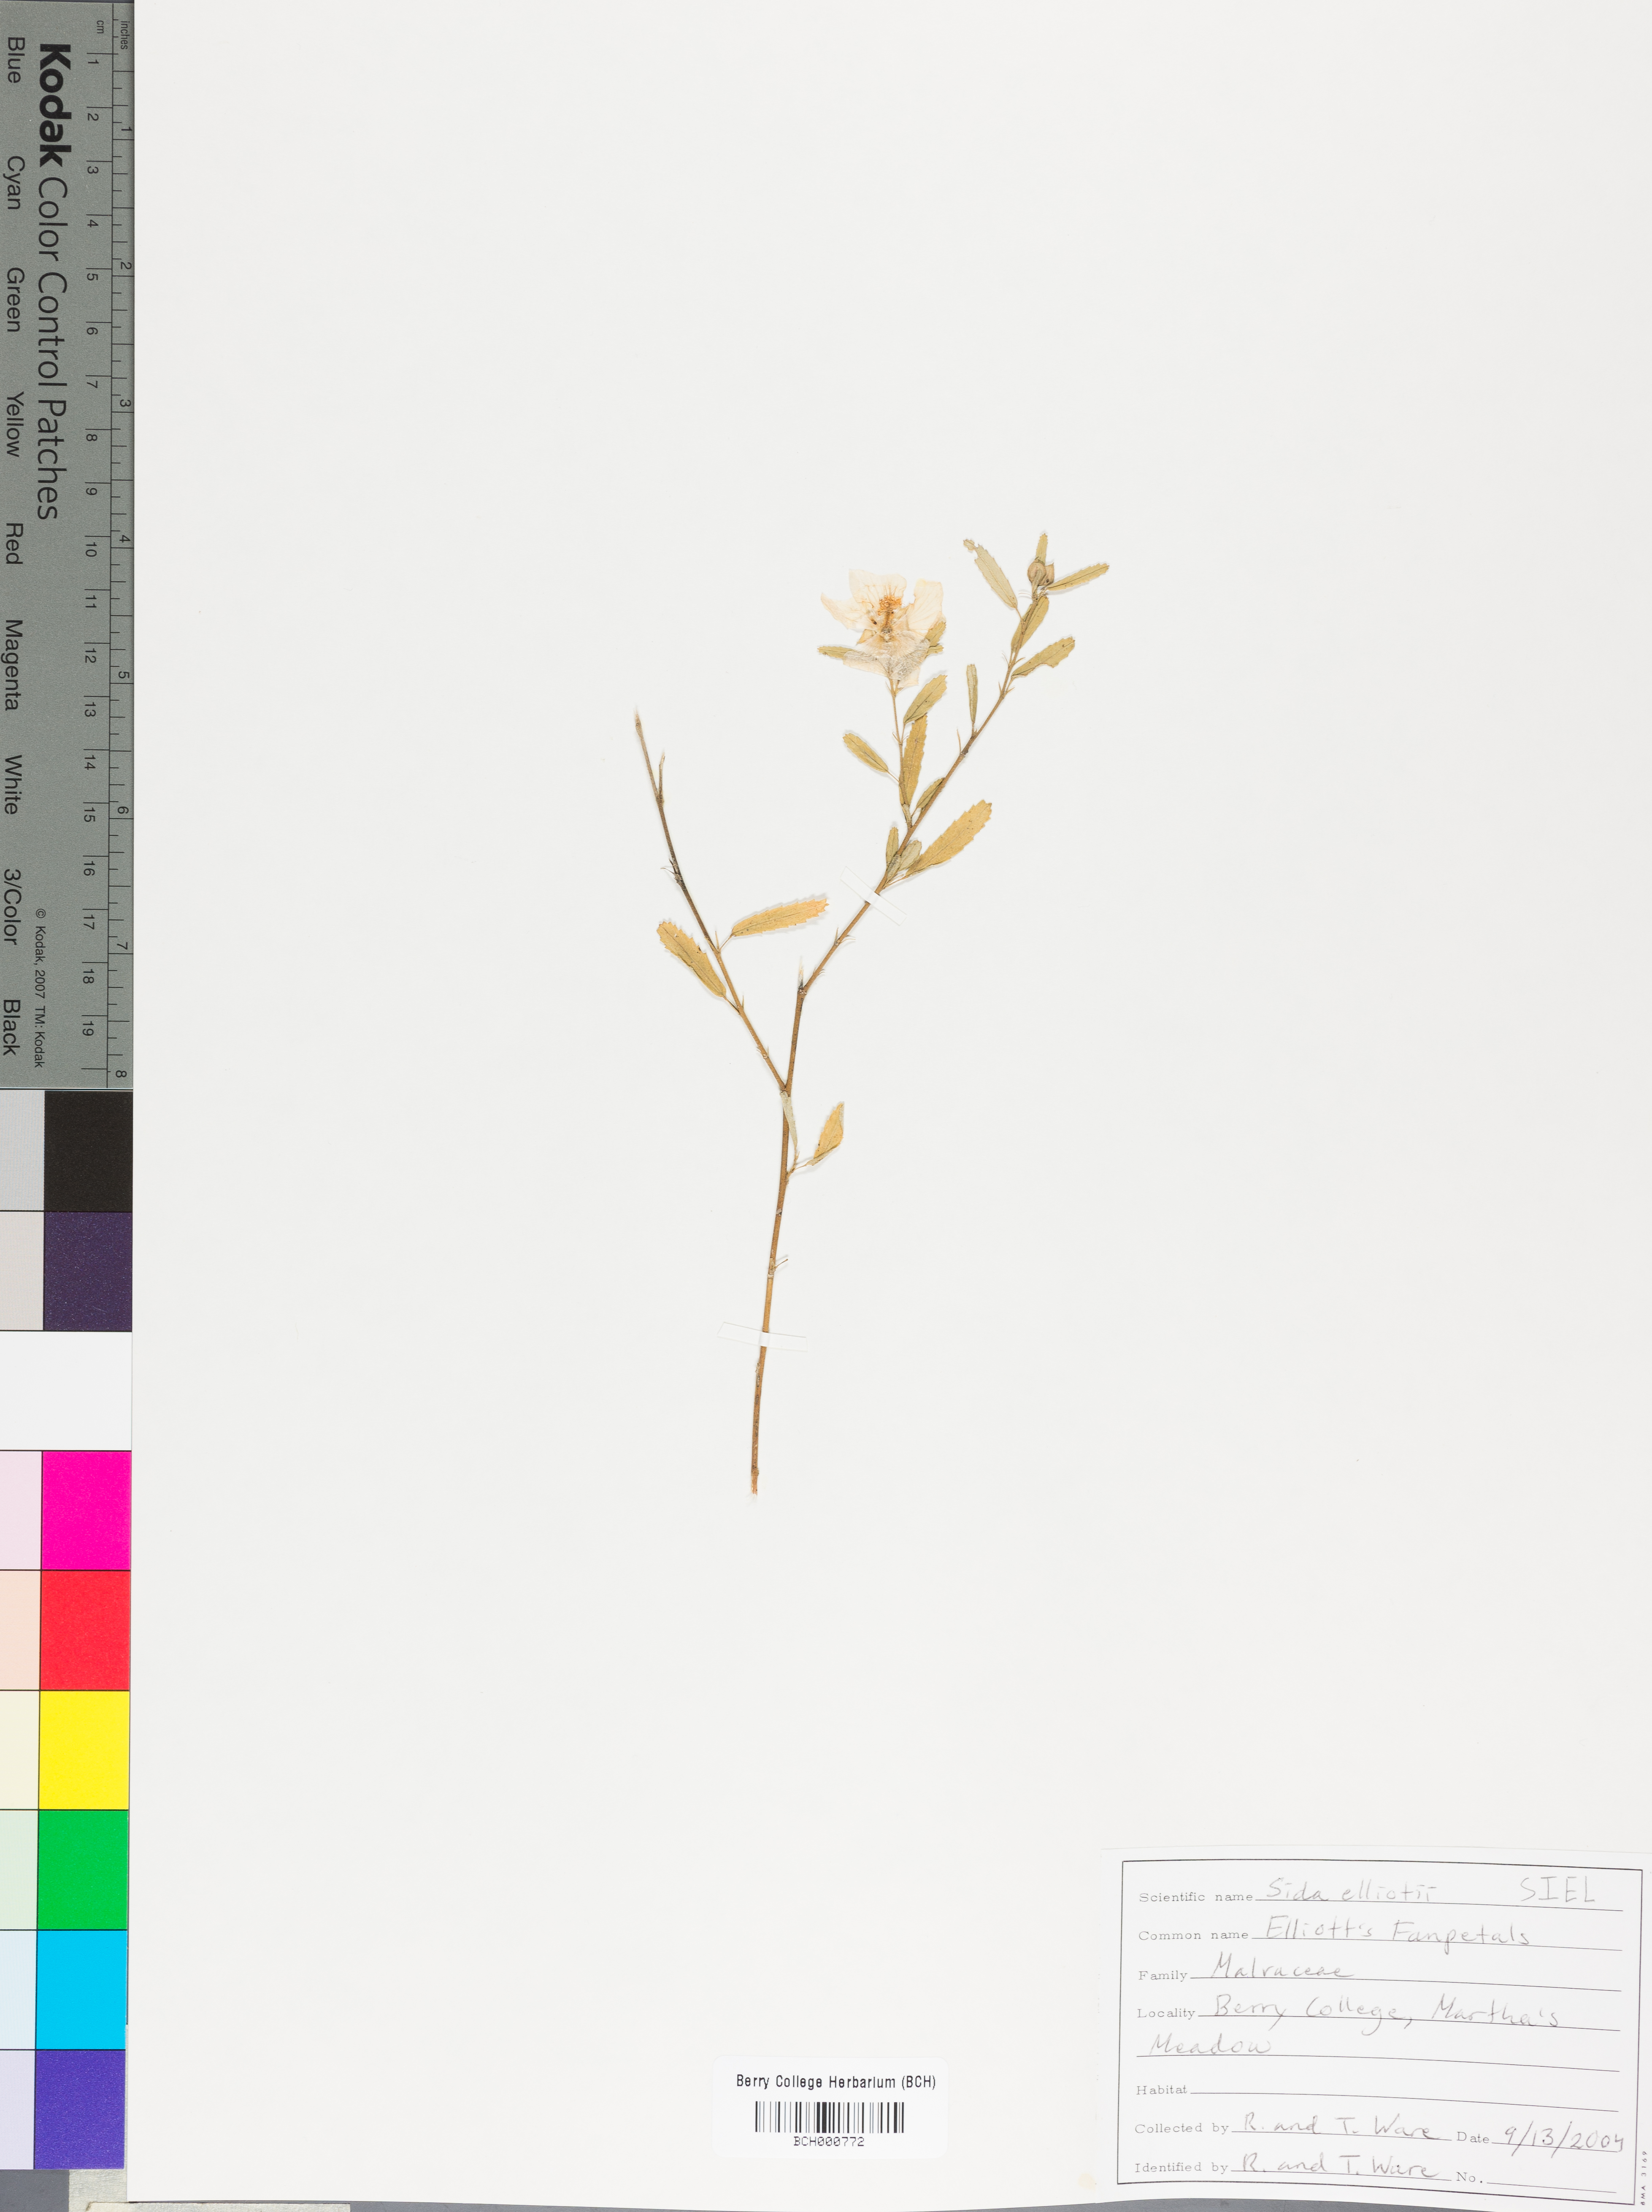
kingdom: Plantae
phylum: Tracheophyta
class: Magnoliopsida
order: Malvales
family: Malvaceae
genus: Sida
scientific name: Sida elliottii
